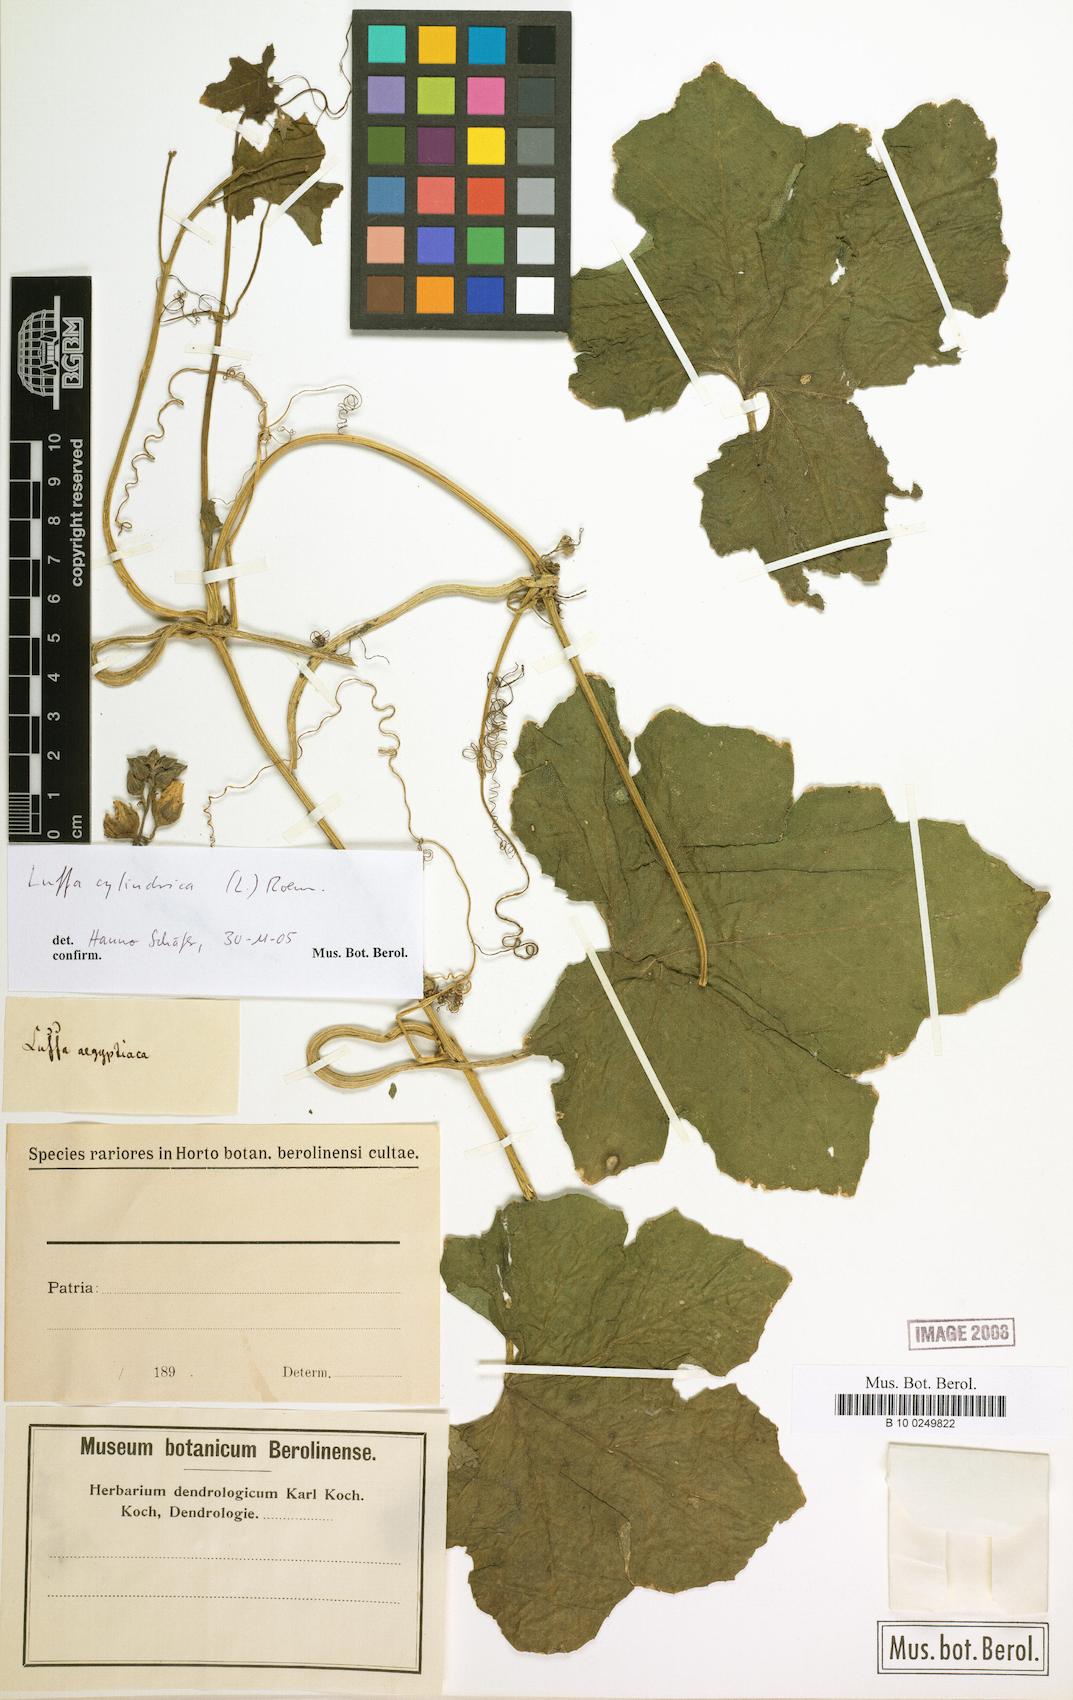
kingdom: Plantae
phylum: Tracheophyta
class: Magnoliopsida
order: Cucurbitales
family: Cucurbitaceae
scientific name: Cucurbitaceae
